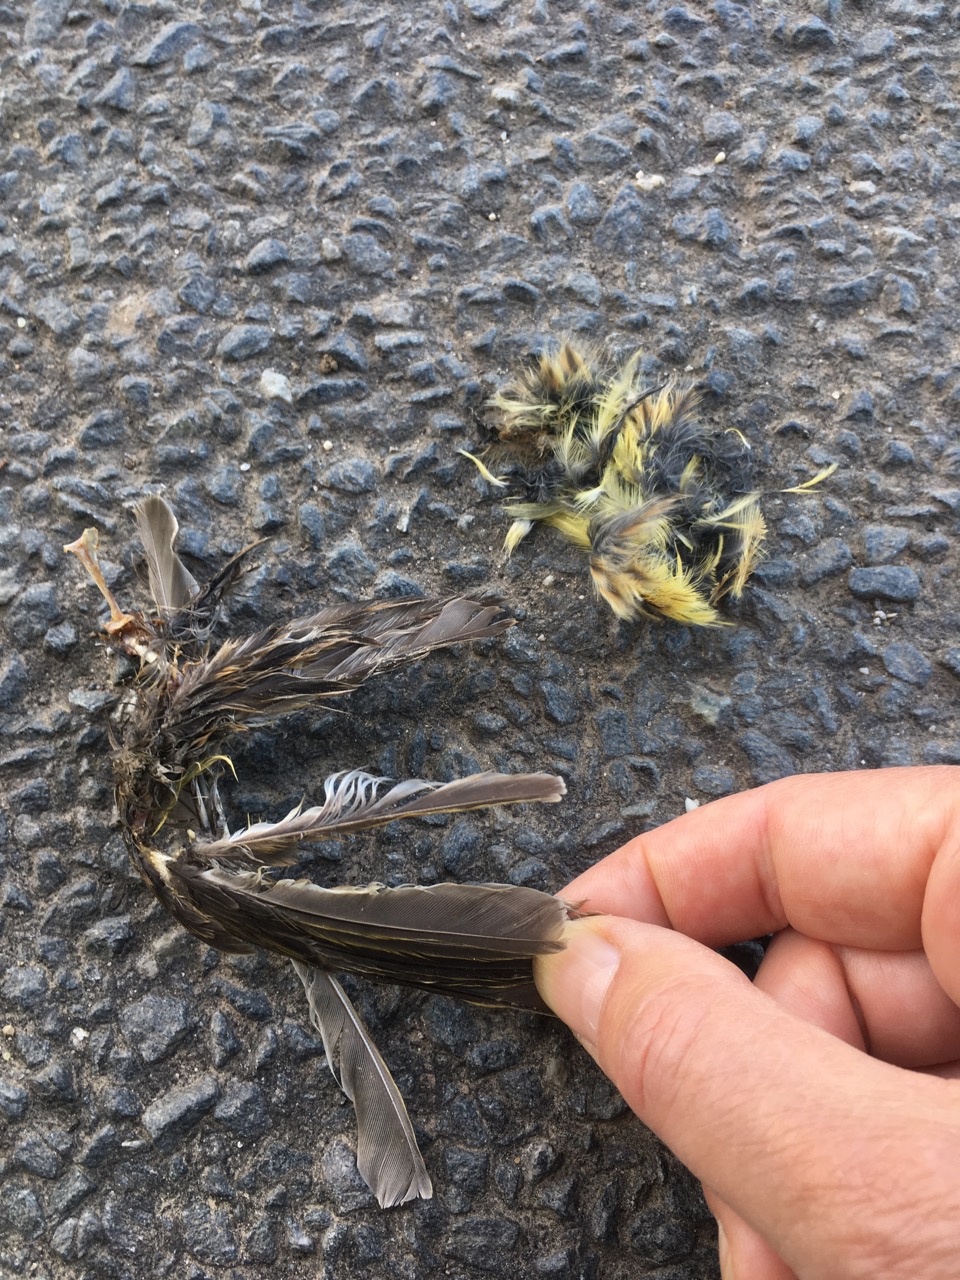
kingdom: Animalia
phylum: Chordata
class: Aves
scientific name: Aves
